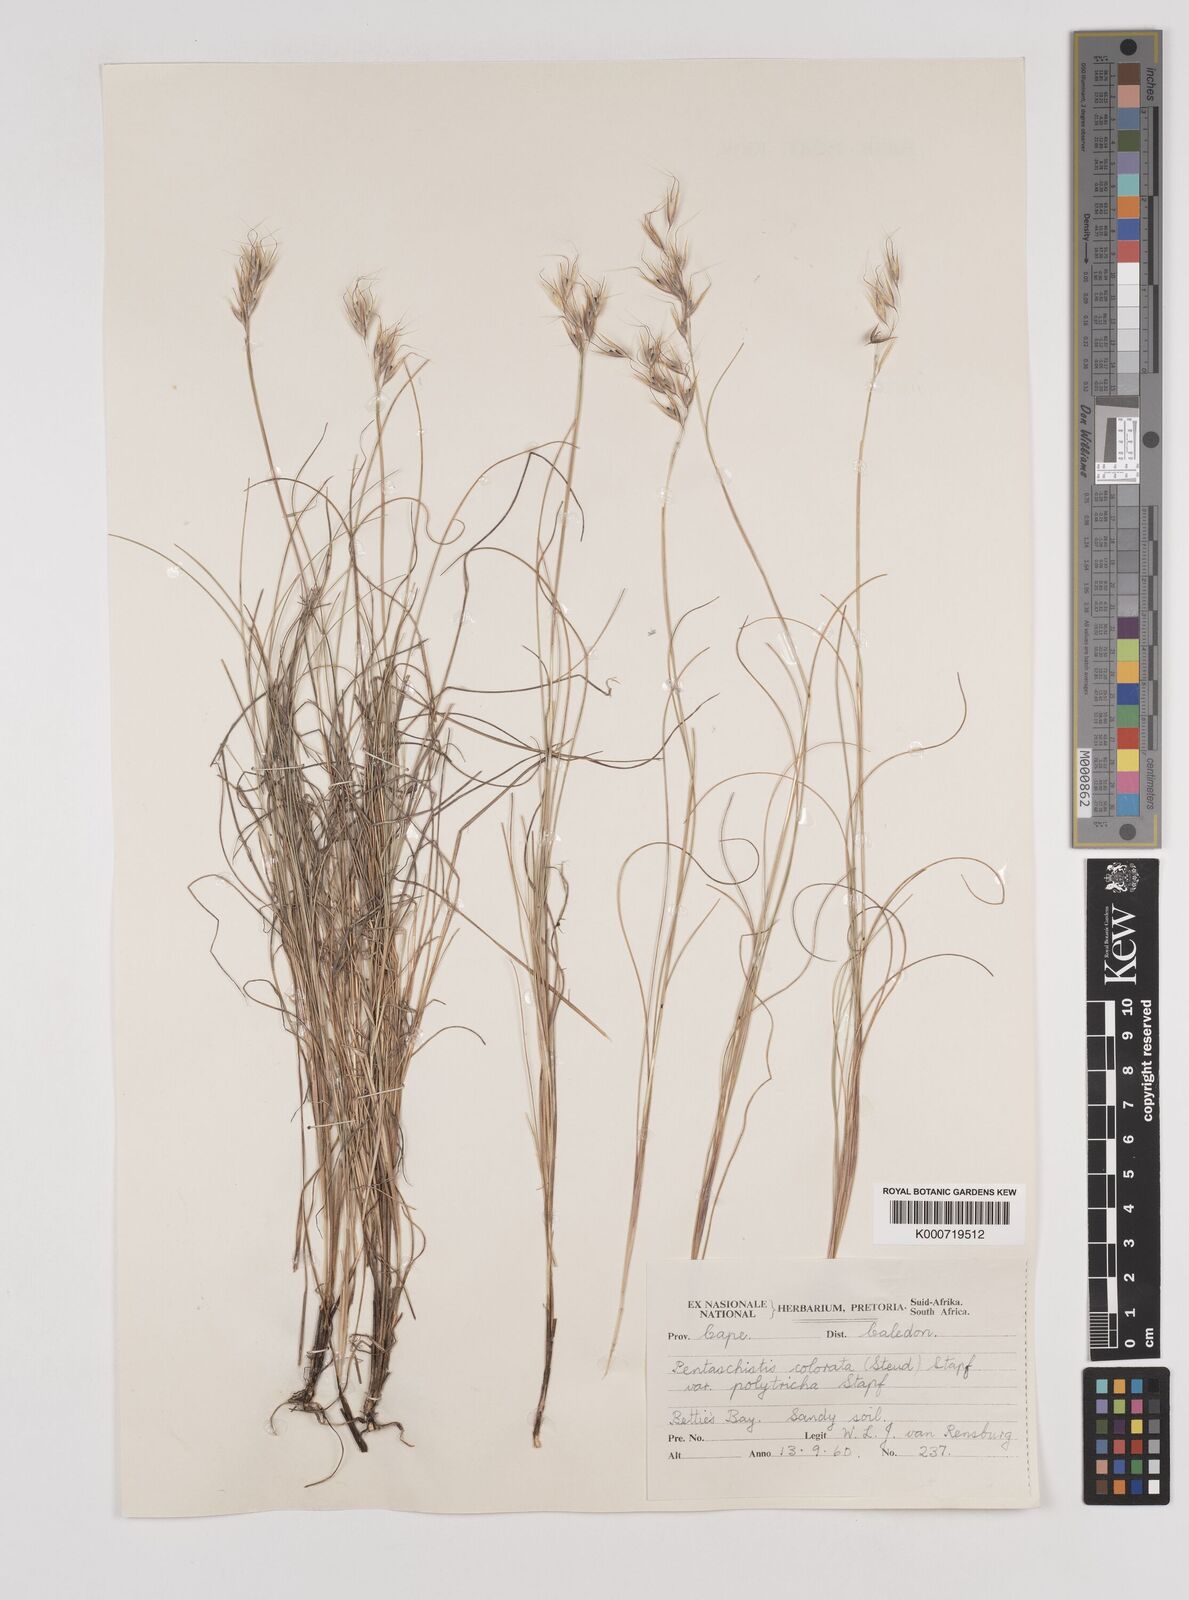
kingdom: Plantae
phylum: Tracheophyta
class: Liliopsida
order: Poales
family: Poaceae
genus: Pentameris
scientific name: Pentameris colorata
